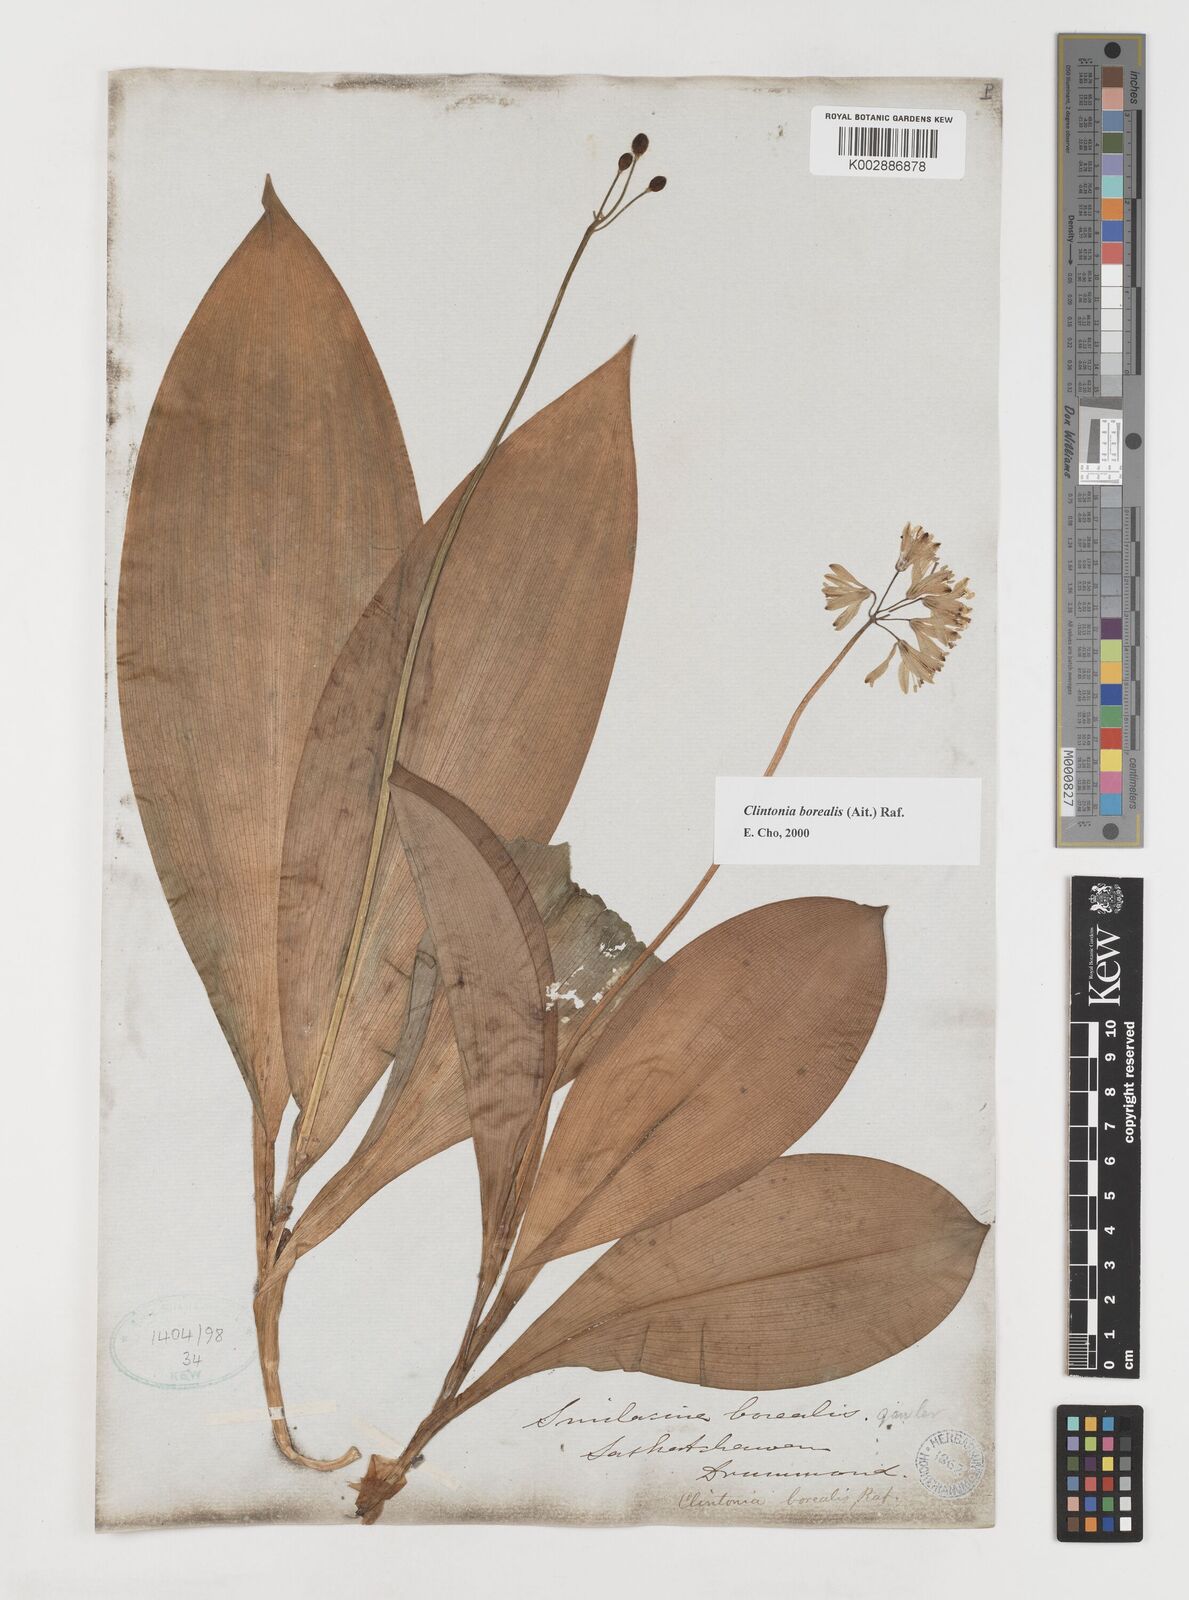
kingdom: Plantae
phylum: Tracheophyta
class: Liliopsida
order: Liliales
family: Liliaceae
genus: Clintonia
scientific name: Clintonia borealis
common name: Yellow clintonia
